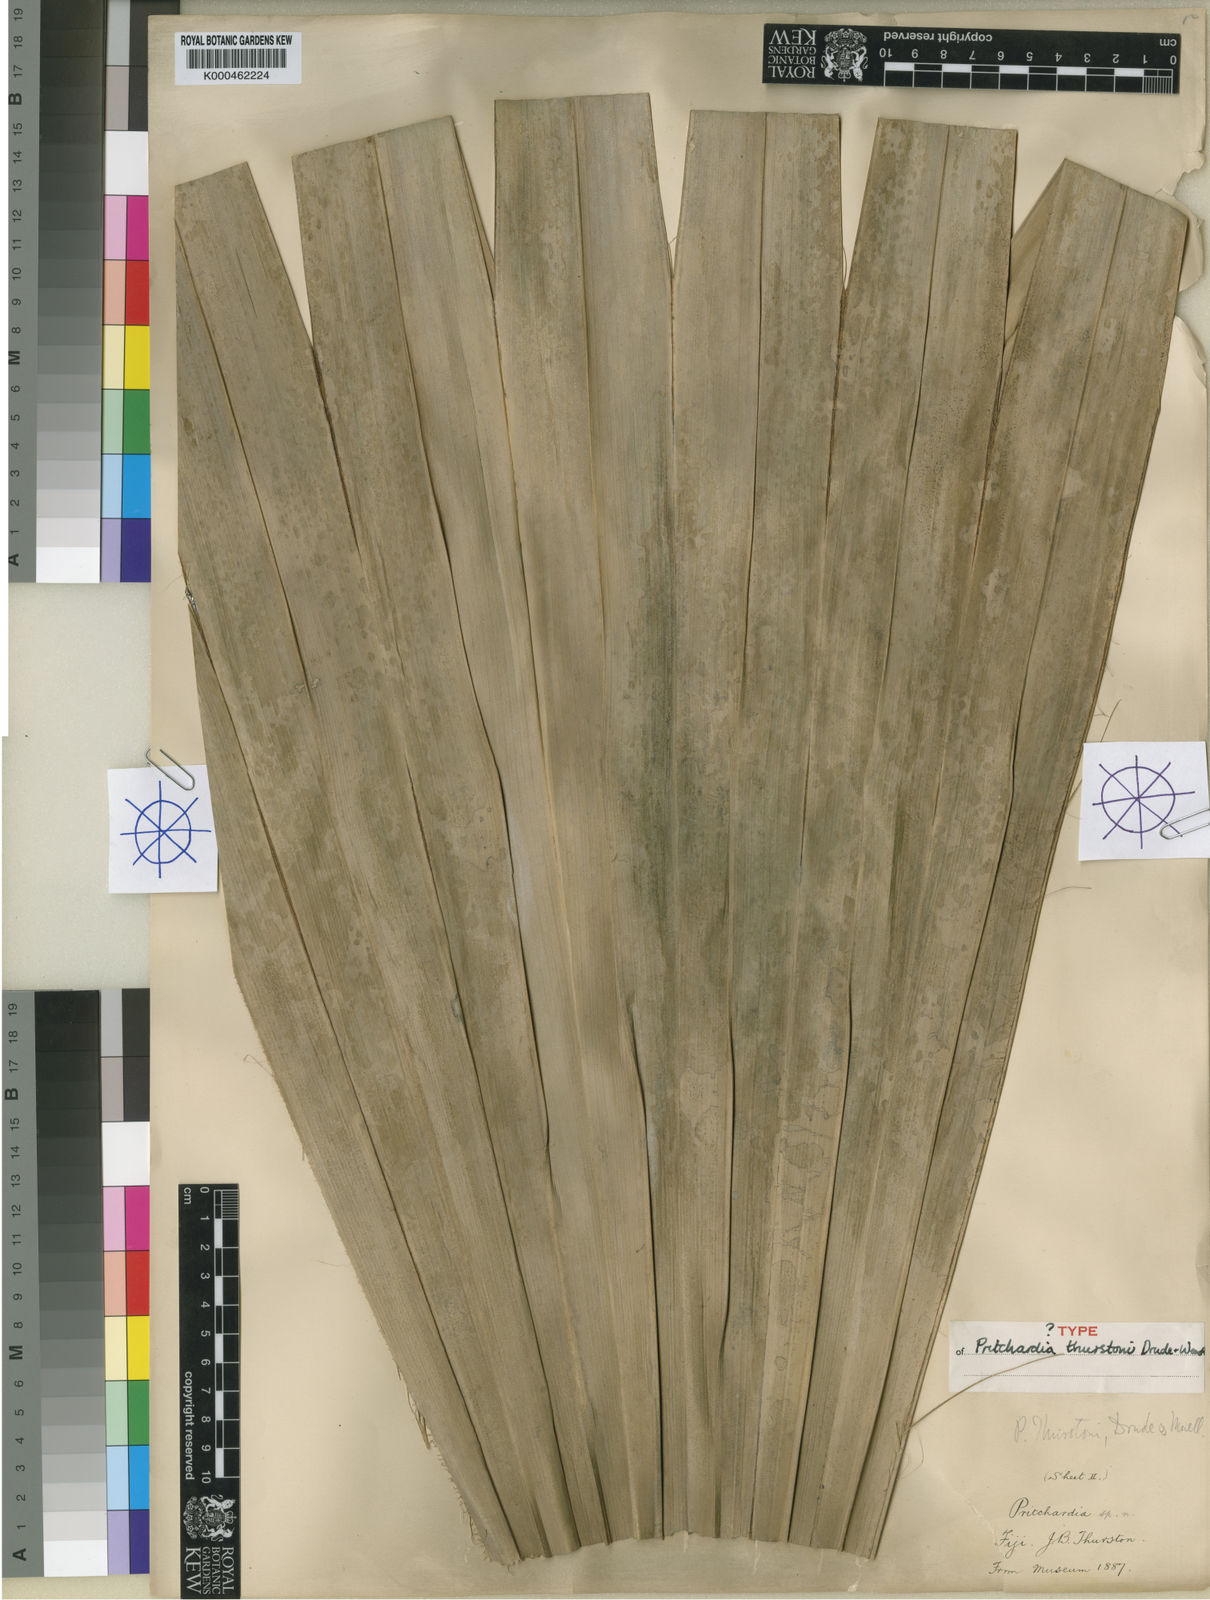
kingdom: Plantae
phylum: Tracheophyta
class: Liliopsida
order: Arecales
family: Arecaceae
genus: Pritchardia
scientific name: Pritchardia thurstonii
